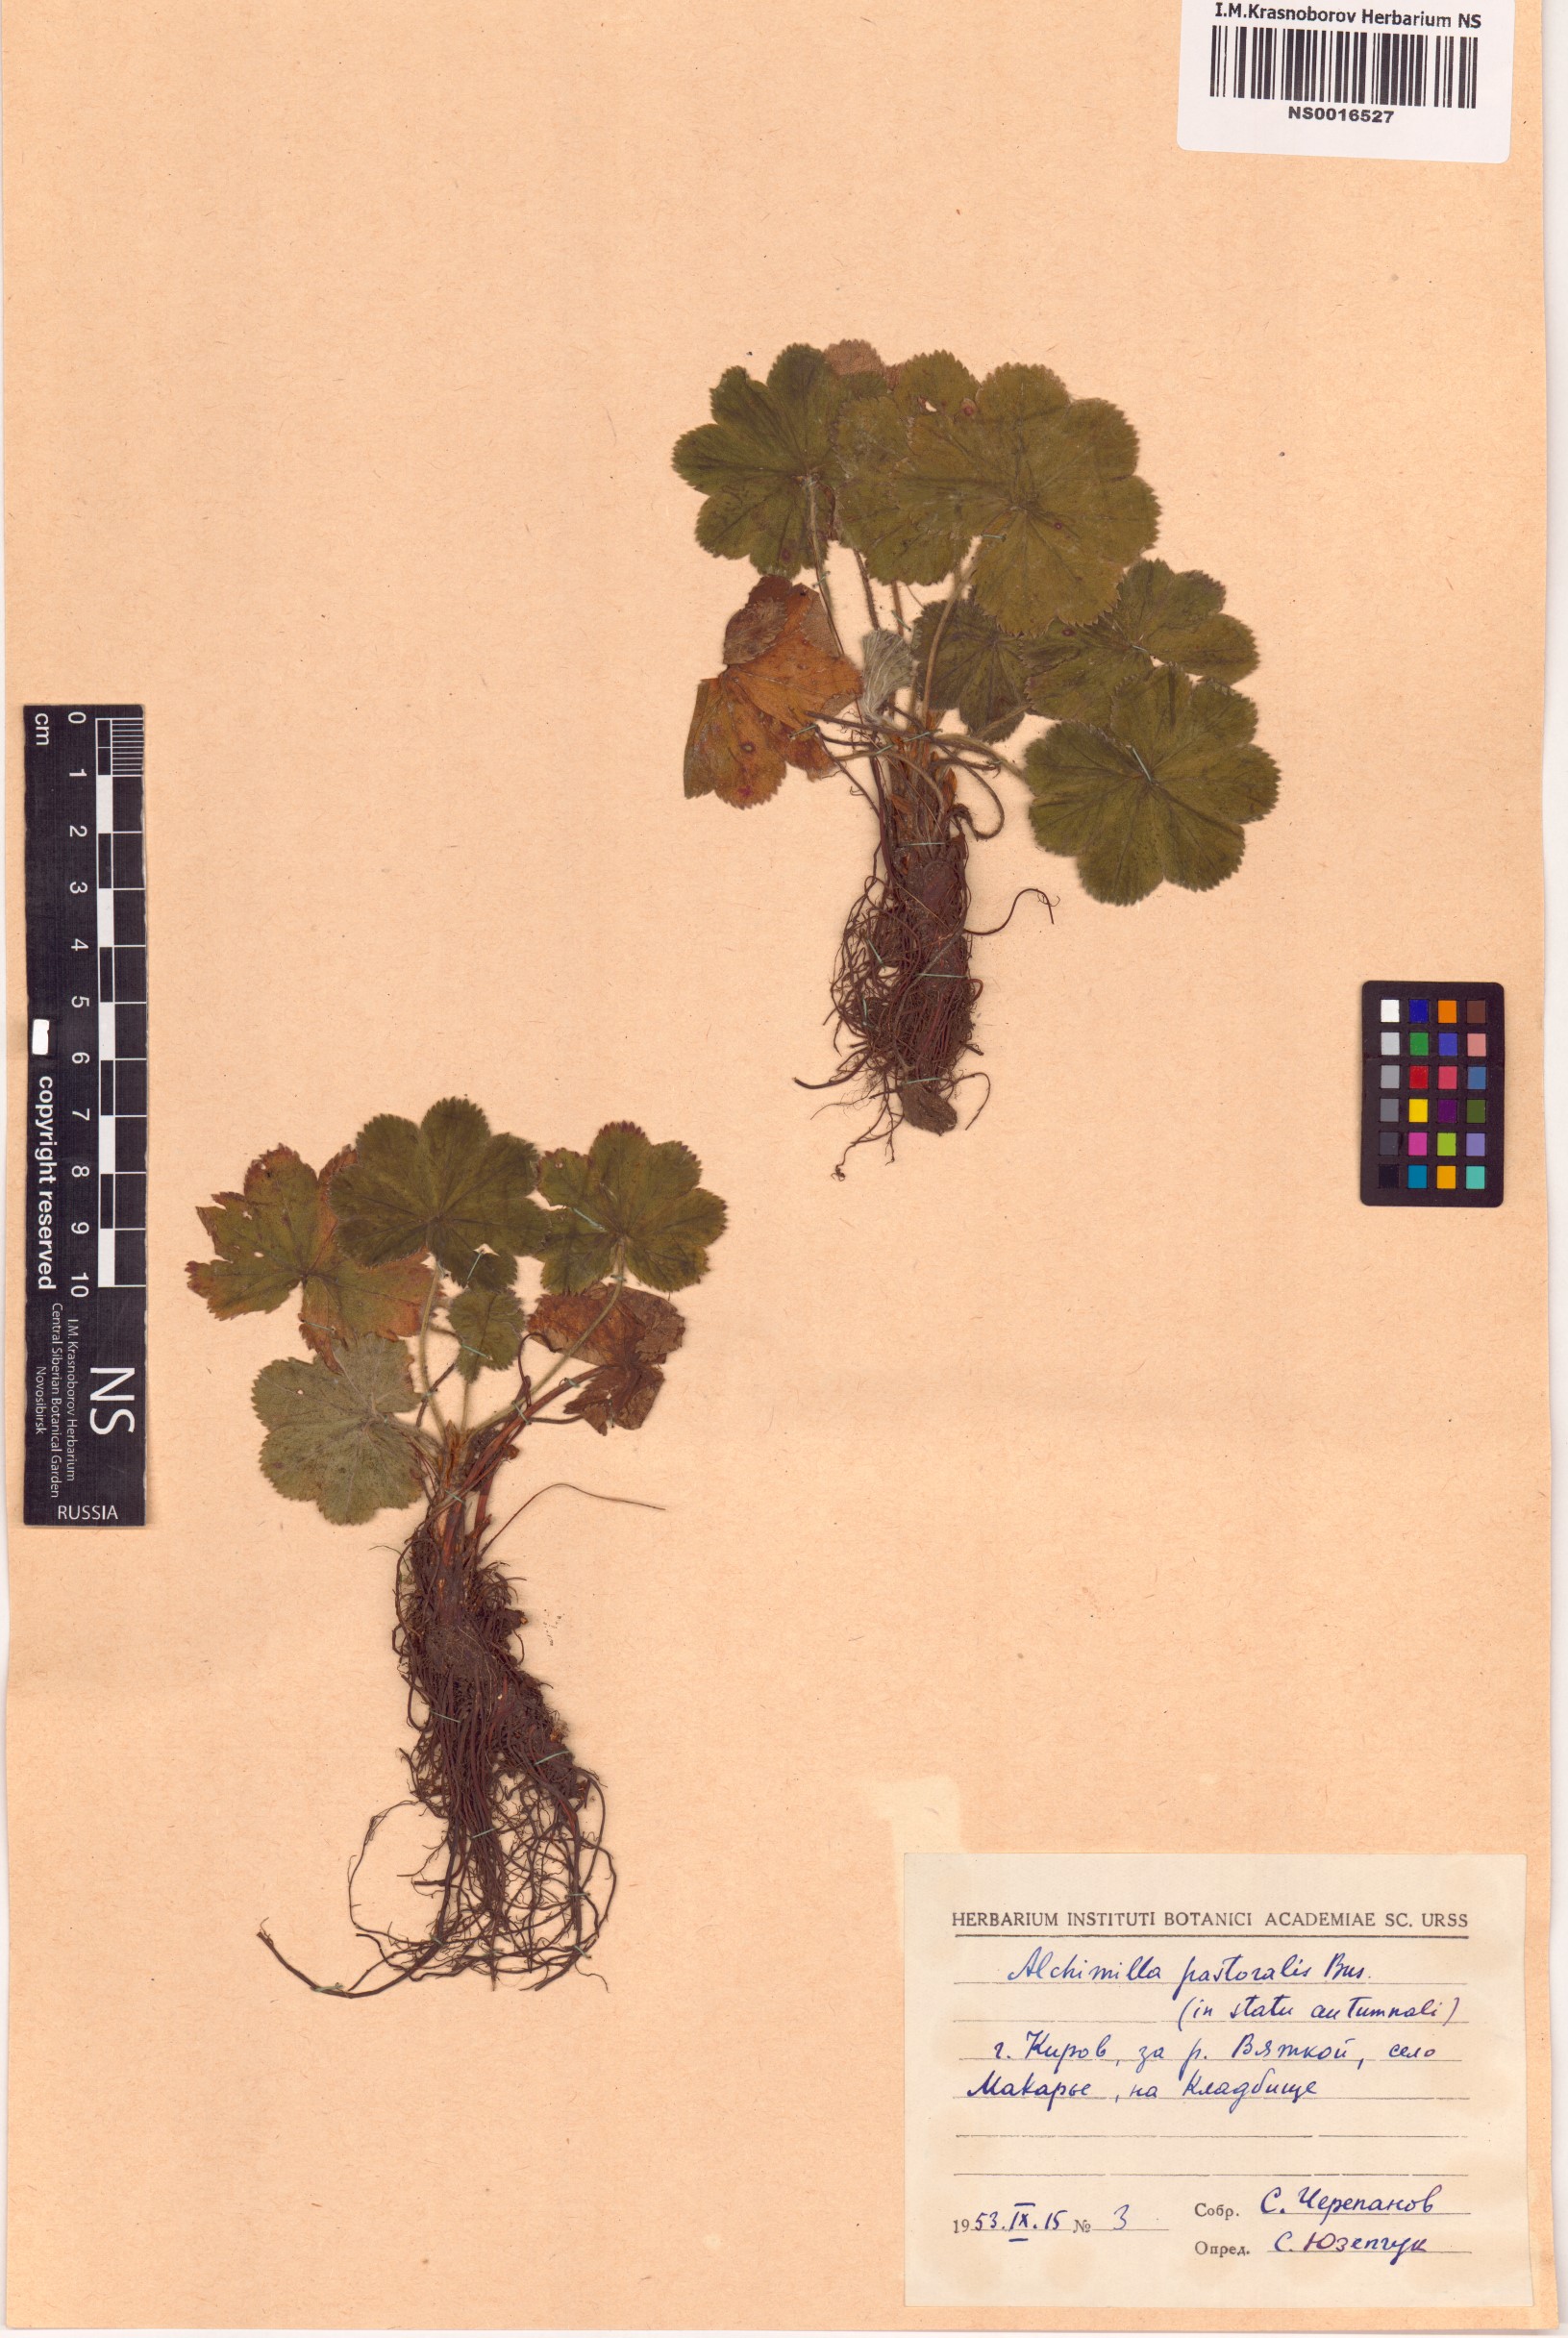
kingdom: Plantae
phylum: Tracheophyta
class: Magnoliopsida
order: Rosales
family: Rosaceae
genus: Alchemilla
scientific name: Alchemilla monticola
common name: Hairy lady's mantle
